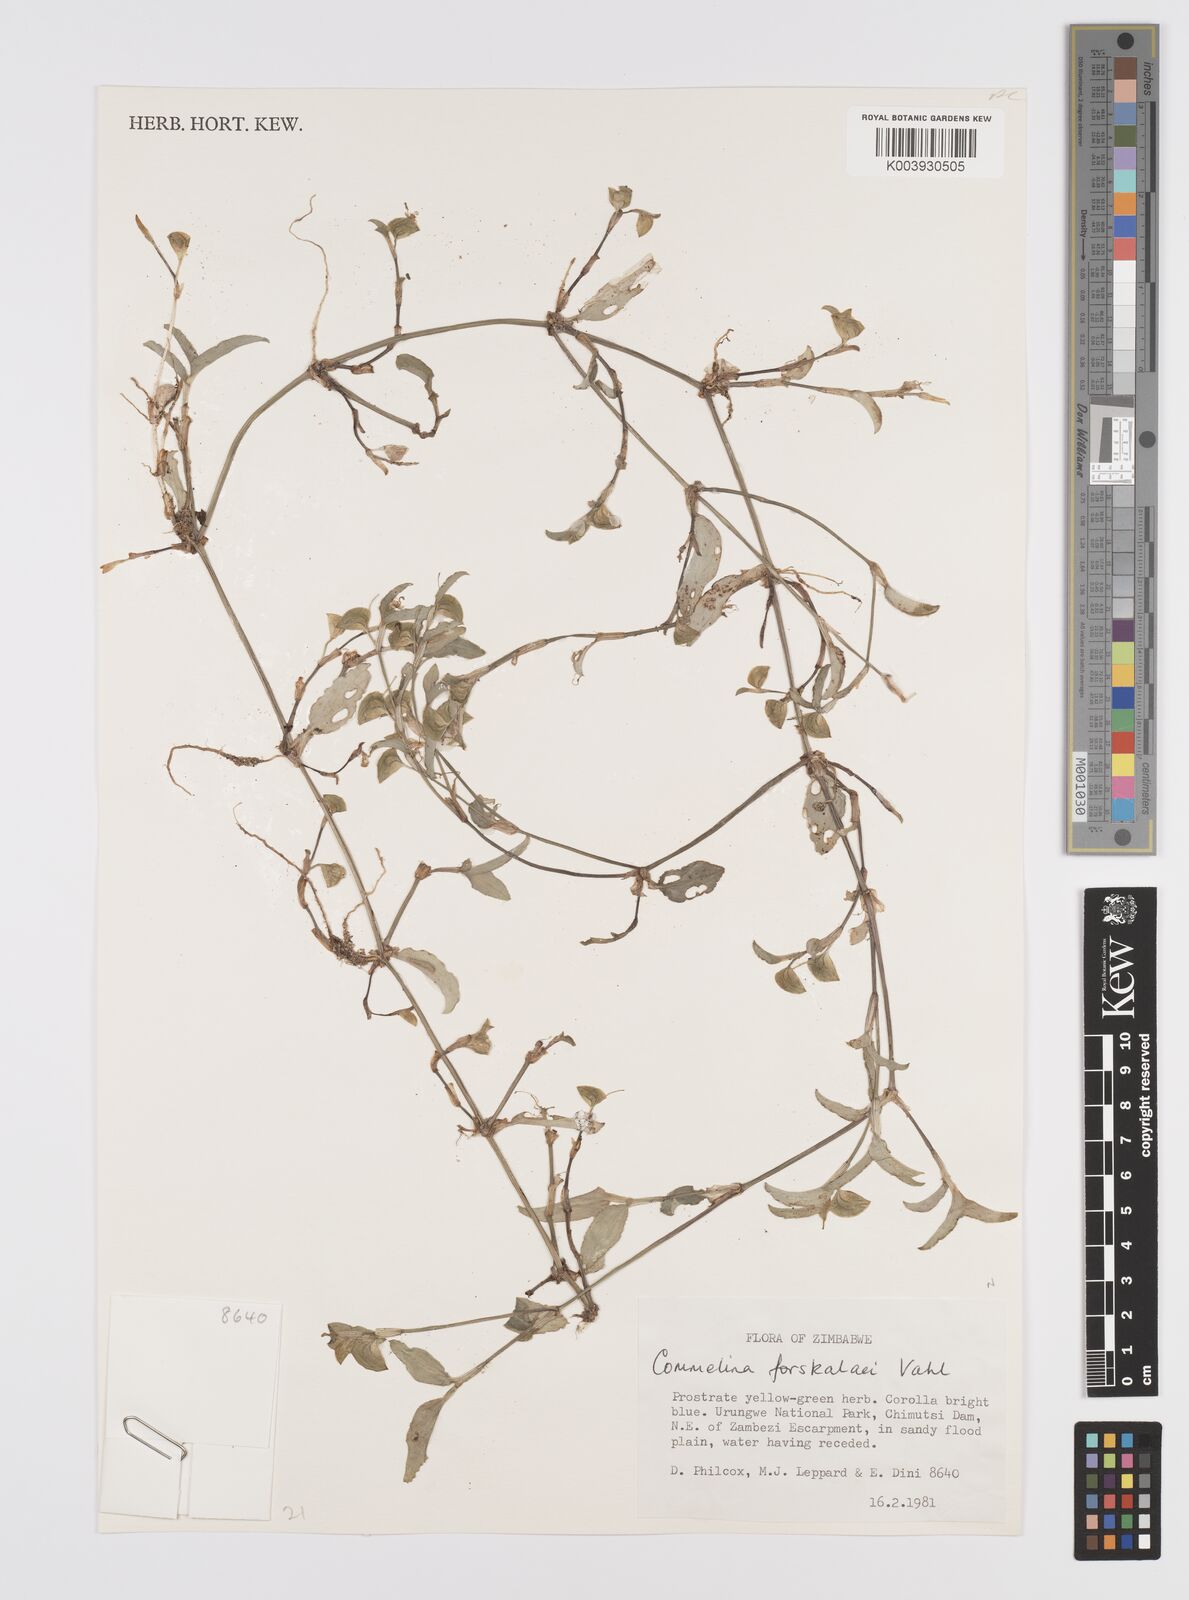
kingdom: Plantae
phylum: Tracheophyta
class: Liliopsida
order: Commelinales
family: Commelinaceae
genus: Commelina
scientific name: Commelina forskaolii
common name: Rat's ear
